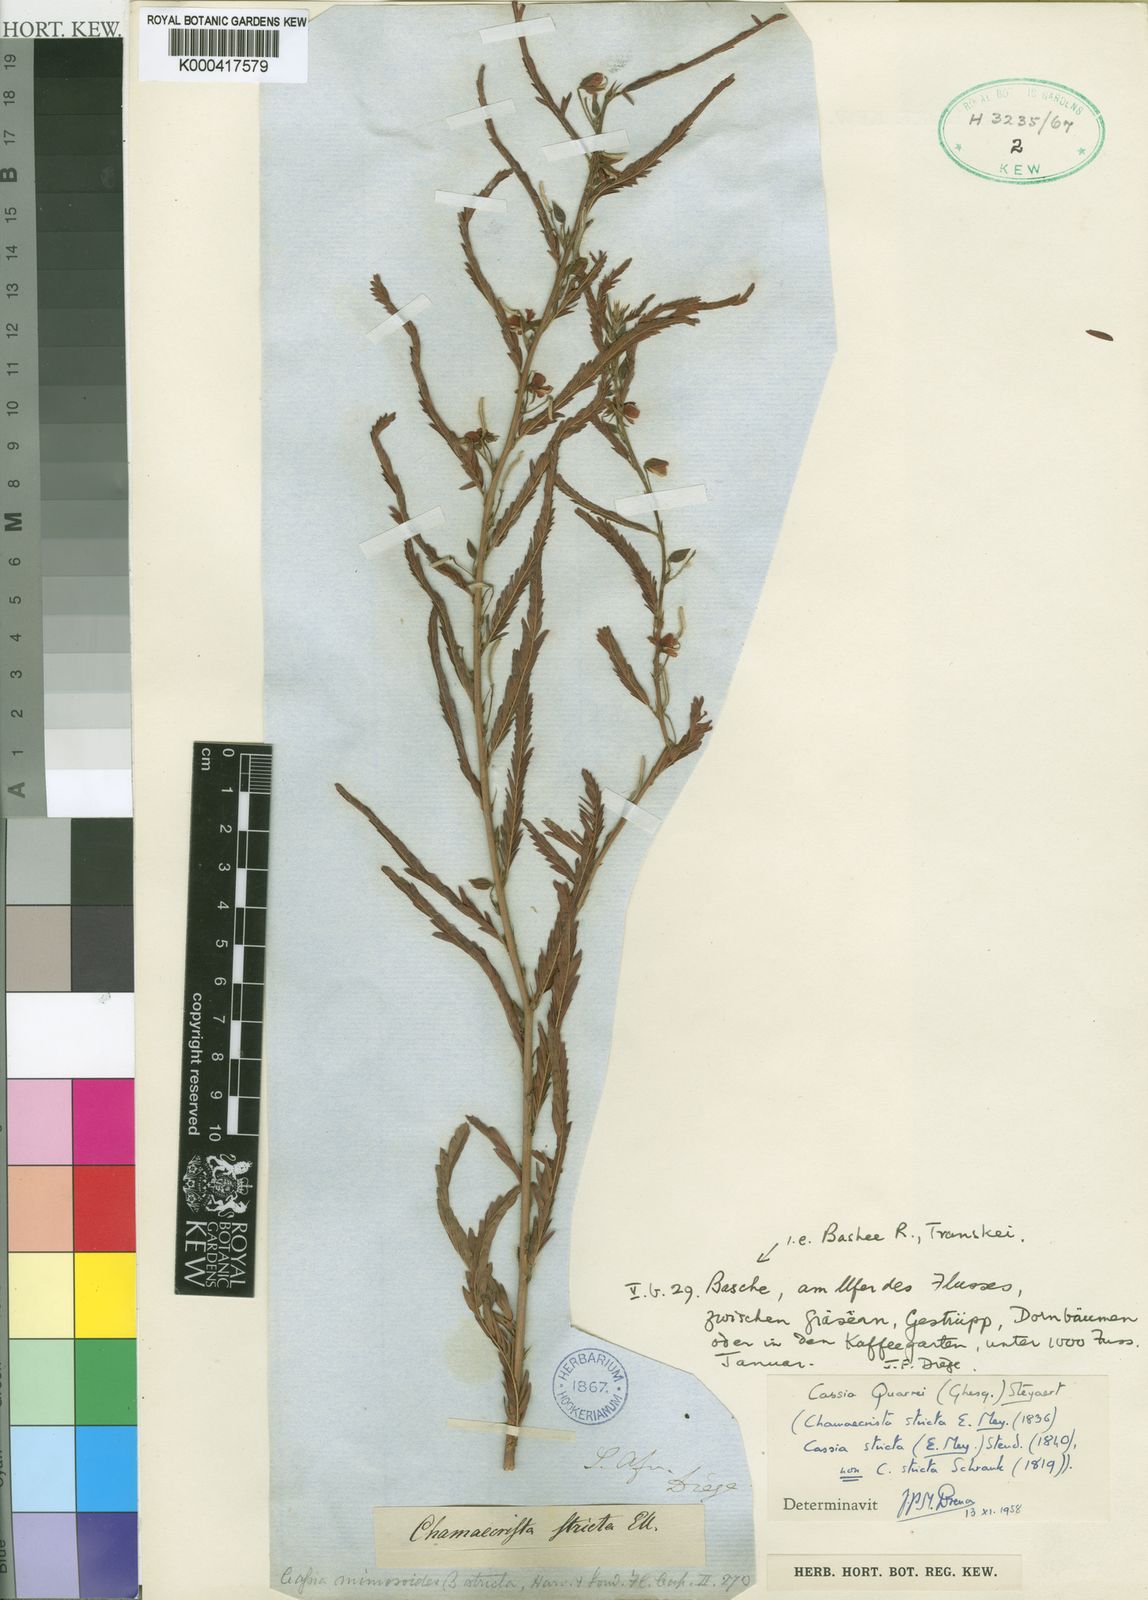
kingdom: Plantae
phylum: Tracheophyta
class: Magnoliopsida
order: Fabales
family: Fabaceae
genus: Chamaecrista
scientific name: Chamaecrista stricta
